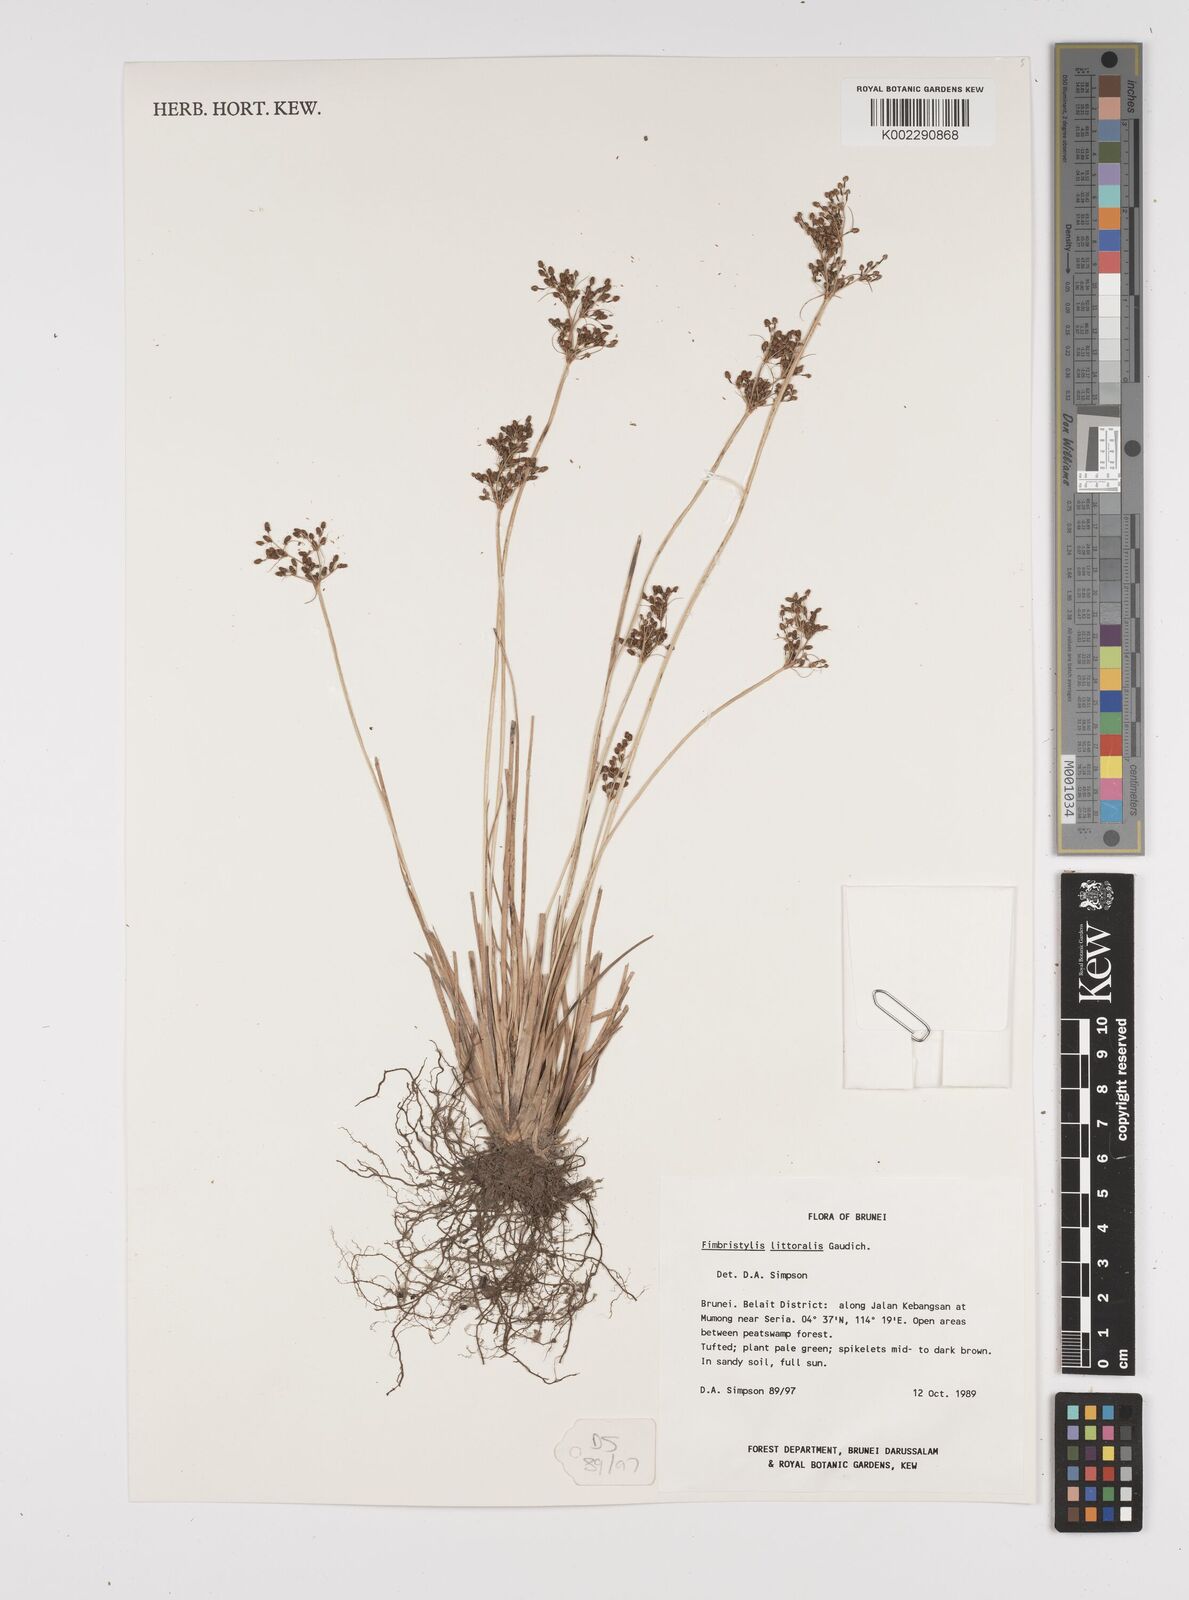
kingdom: Plantae
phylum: Tracheophyta
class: Liliopsida
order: Poales
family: Cyperaceae
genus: Fimbristylis
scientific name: Fimbristylis littoralis
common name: Fimbry
